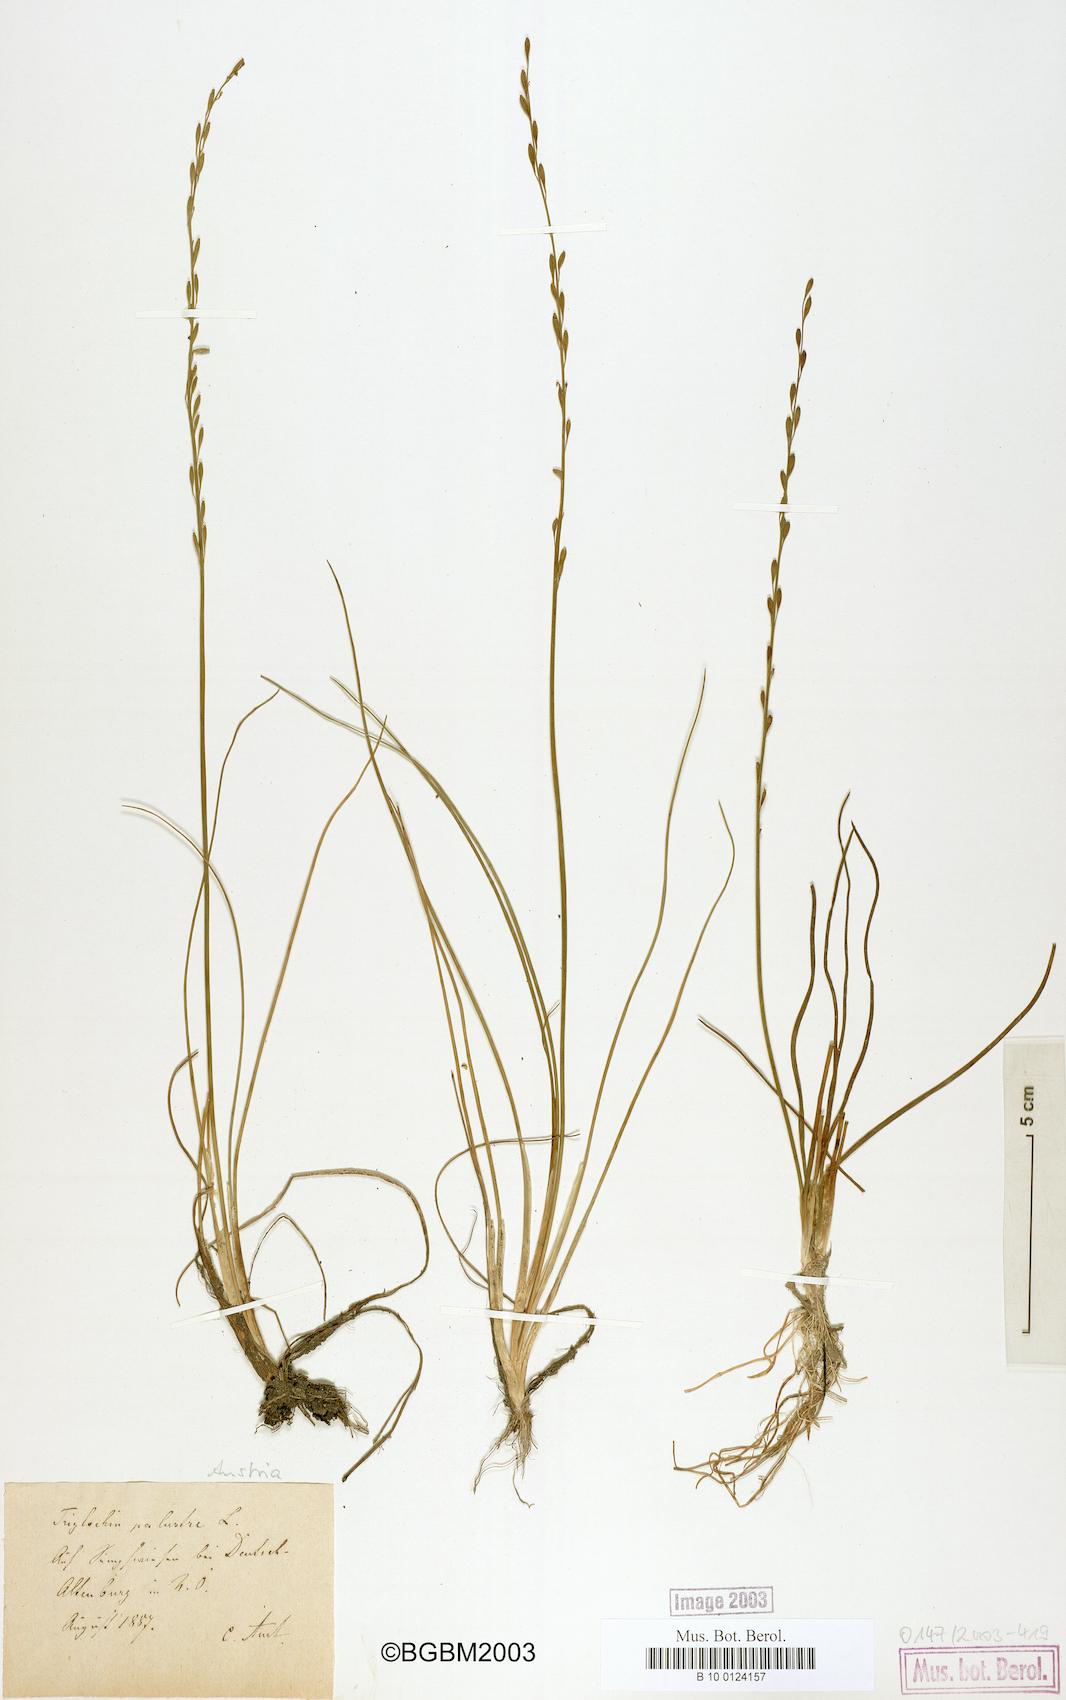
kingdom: Plantae
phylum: Tracheophyta
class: Liliopsida
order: Alismatales
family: Juncaginaceae
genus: Triglochin
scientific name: Triglochin palustris
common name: Marsh arrowgrass
